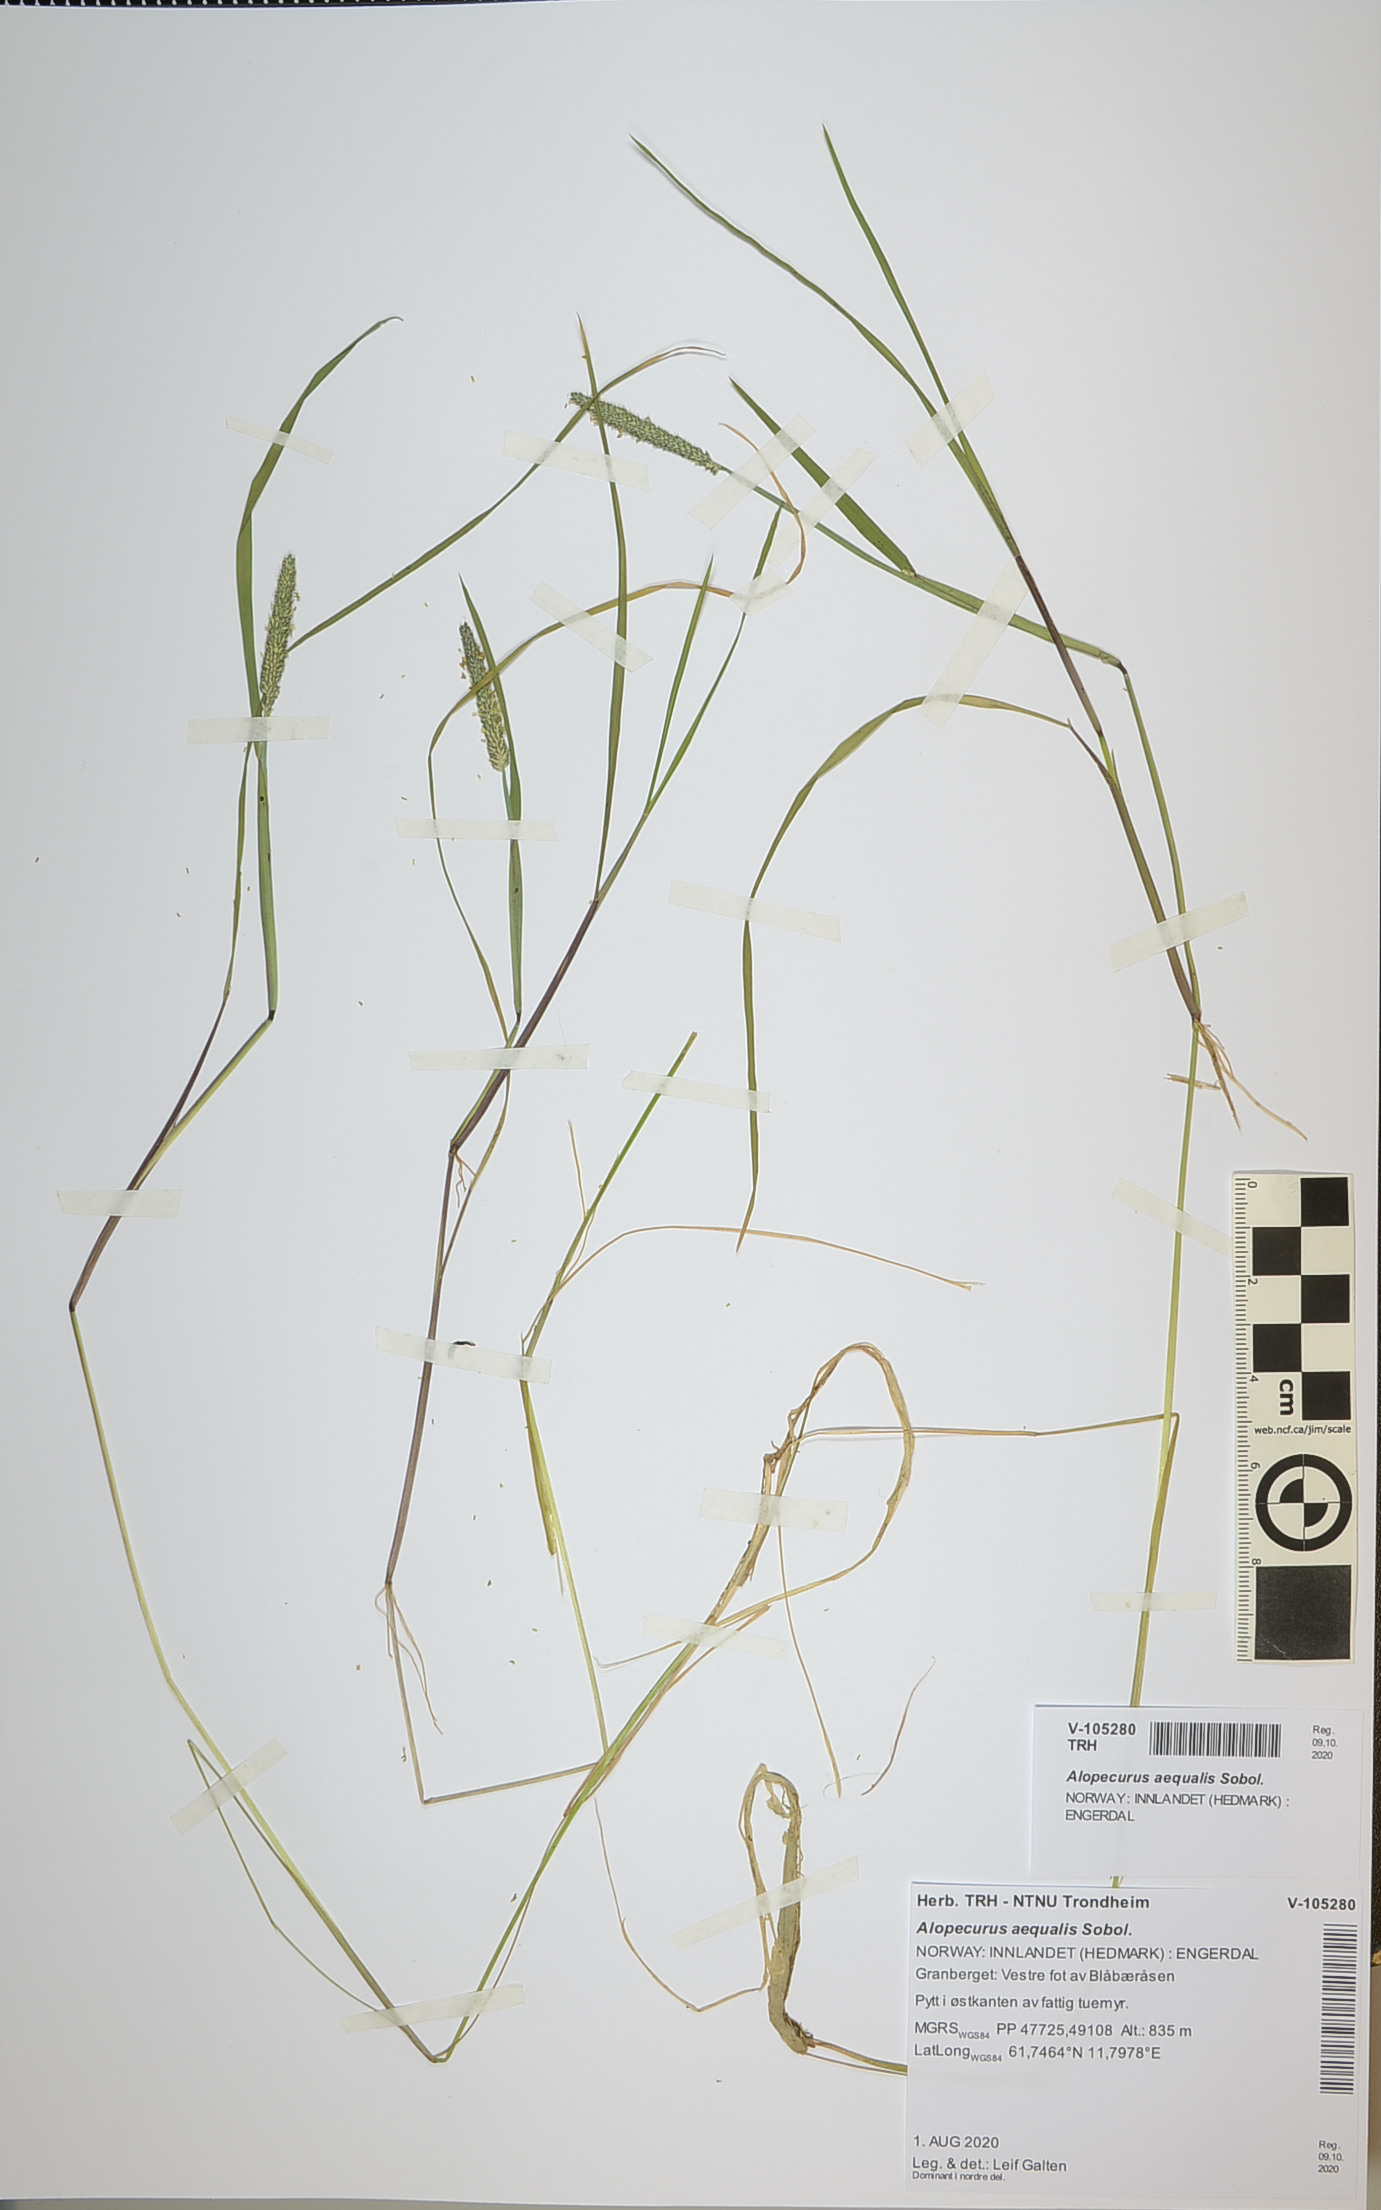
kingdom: Plantae
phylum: Tracheophyta
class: Liliopsida
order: Poales
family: Poaceae
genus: Alopecurus
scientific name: Alopecurus aequalis
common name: Orange foxtail
